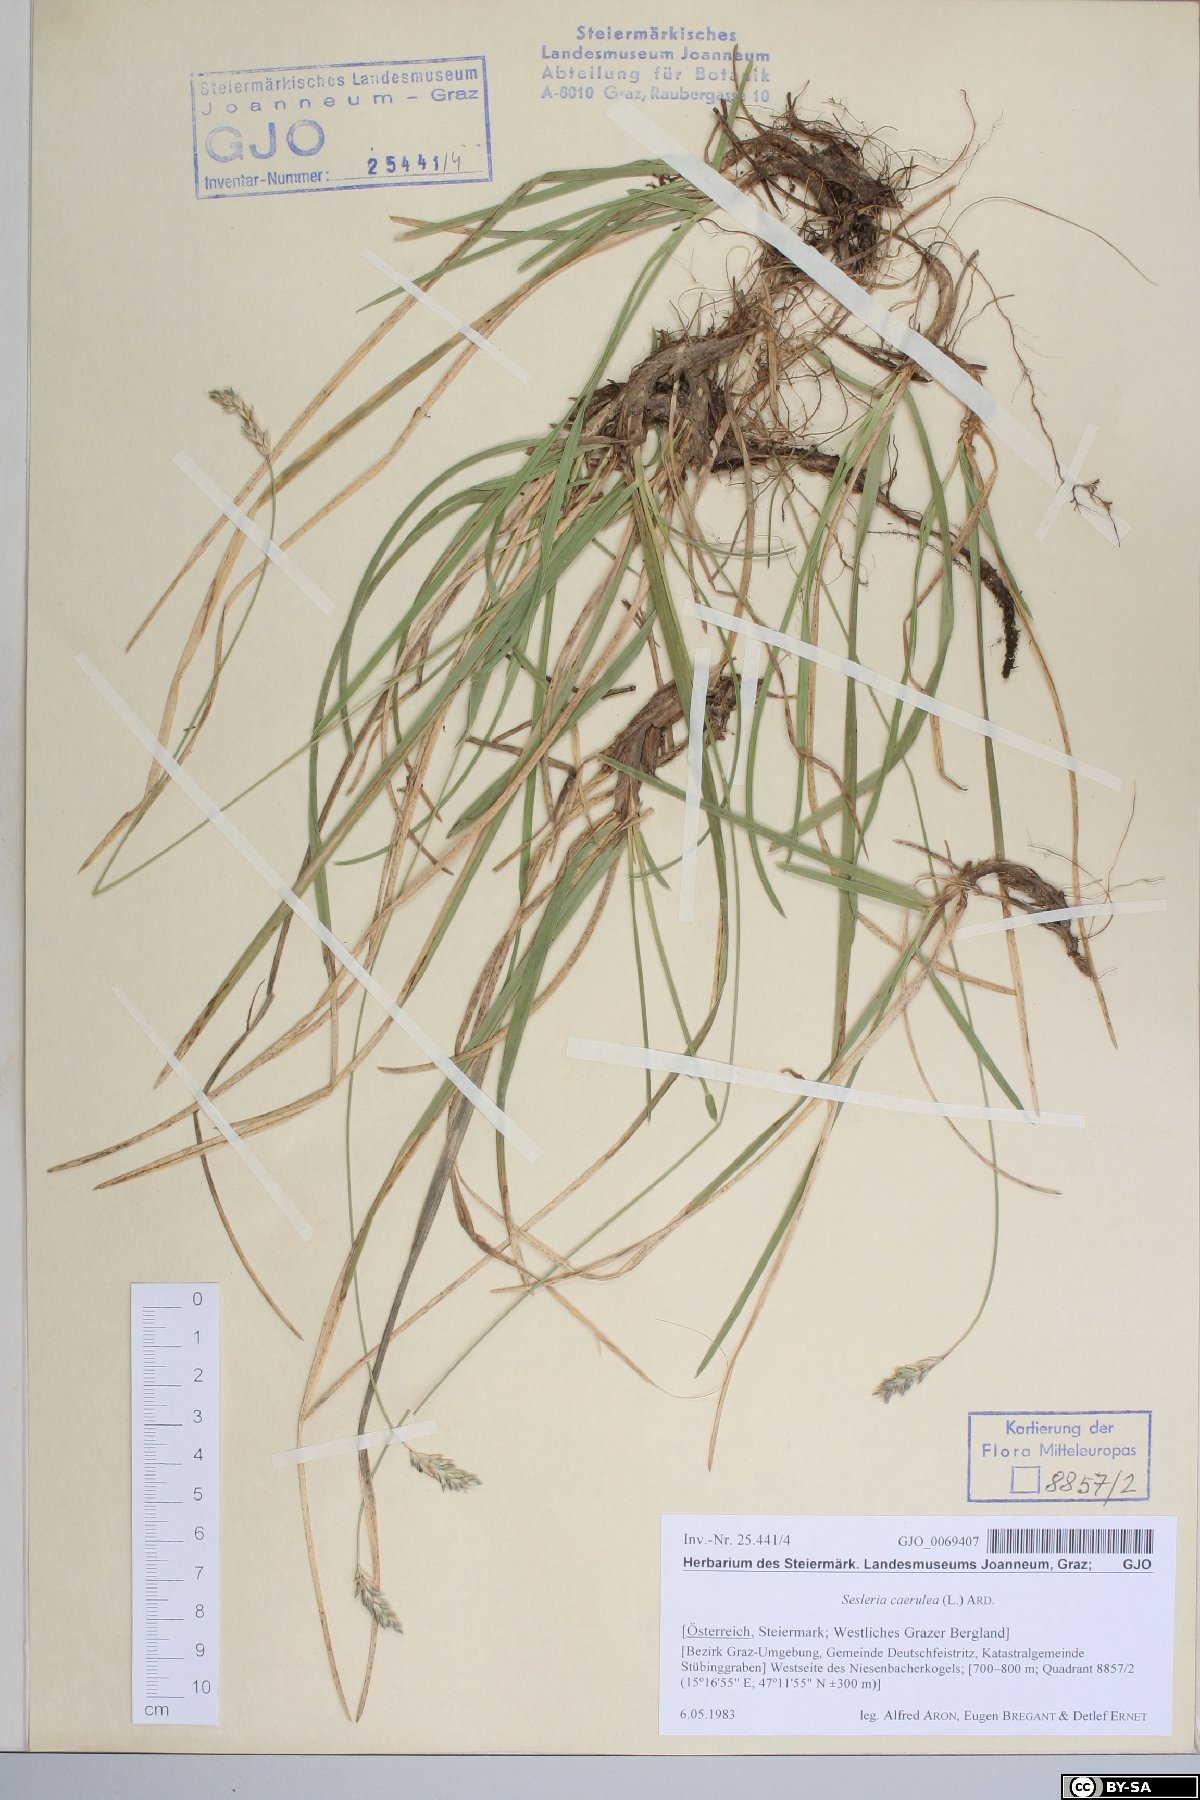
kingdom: Plantae
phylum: Tracheophyta
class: Liliopsida
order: Poales
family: Poaceae
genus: Sesleria
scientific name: Sesleria caerulea
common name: Blue moor-grass
